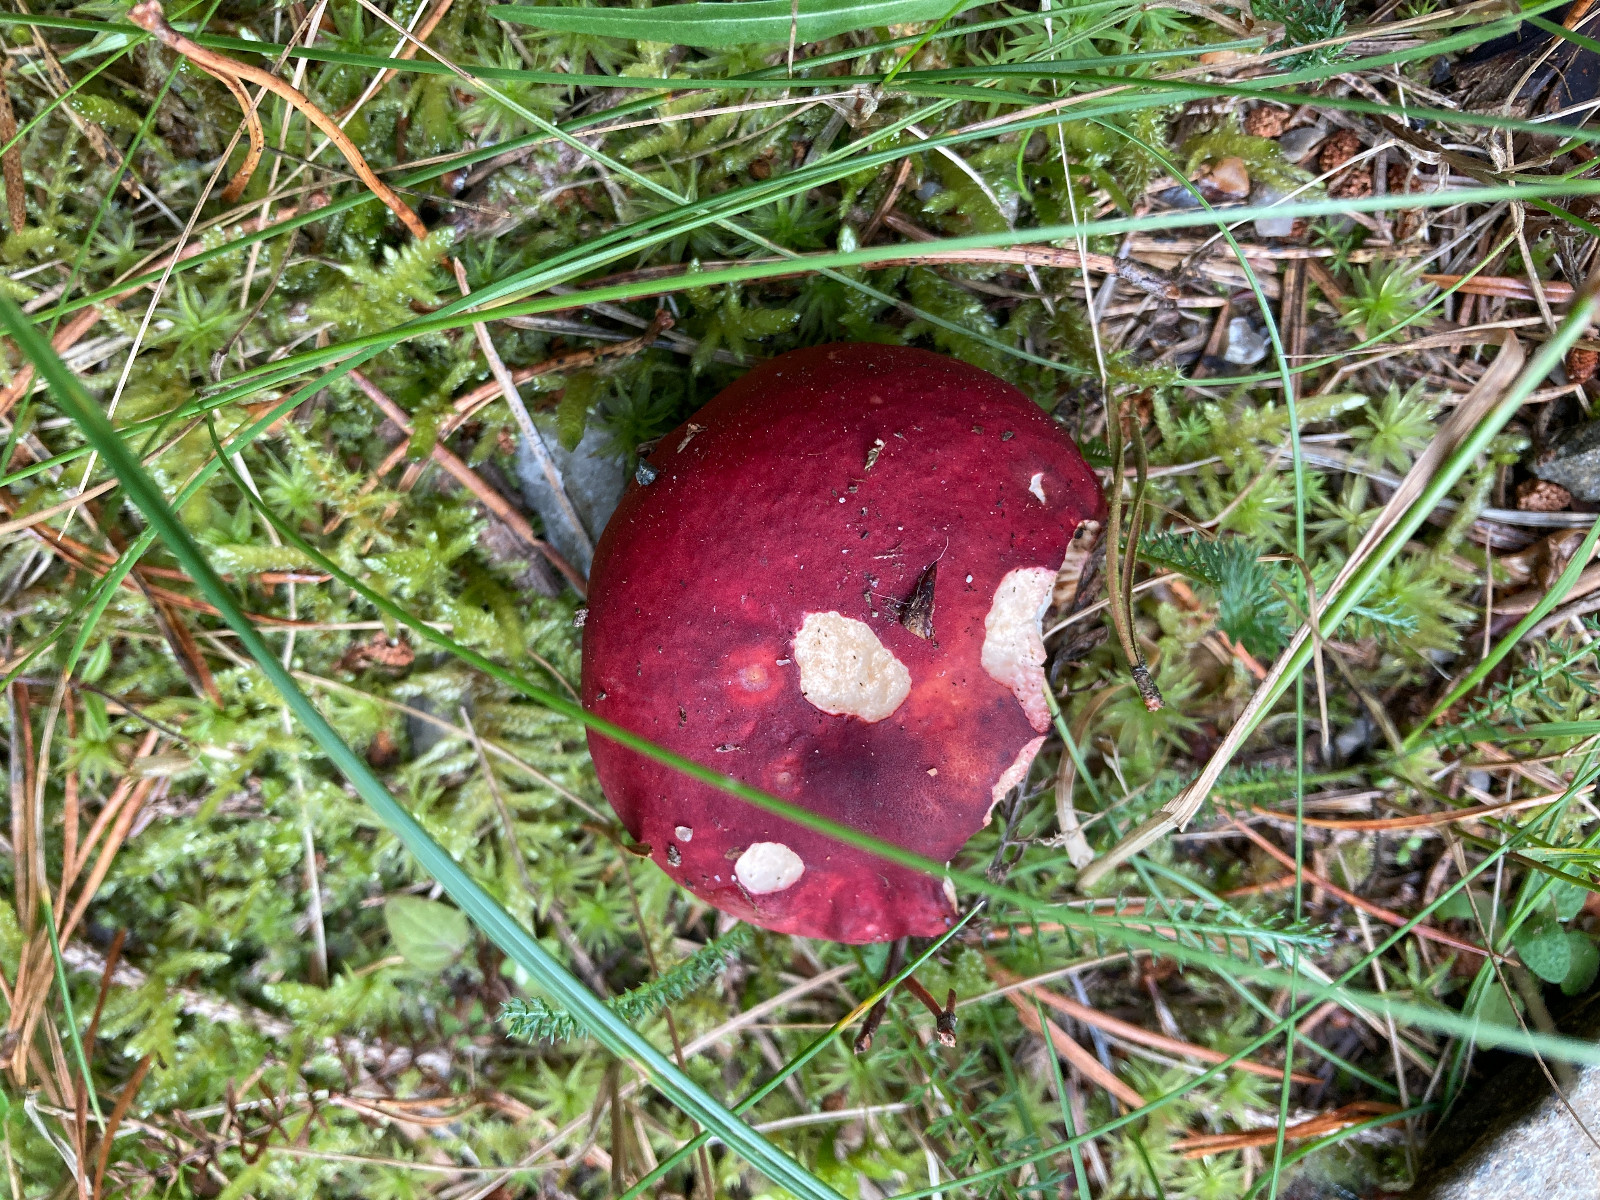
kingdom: Fungi
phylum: Basidiomycota
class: Agaricomycetes
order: Russulales
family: Russulaceae
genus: Russula
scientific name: Russula xerampelina
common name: hummer-skørhat
